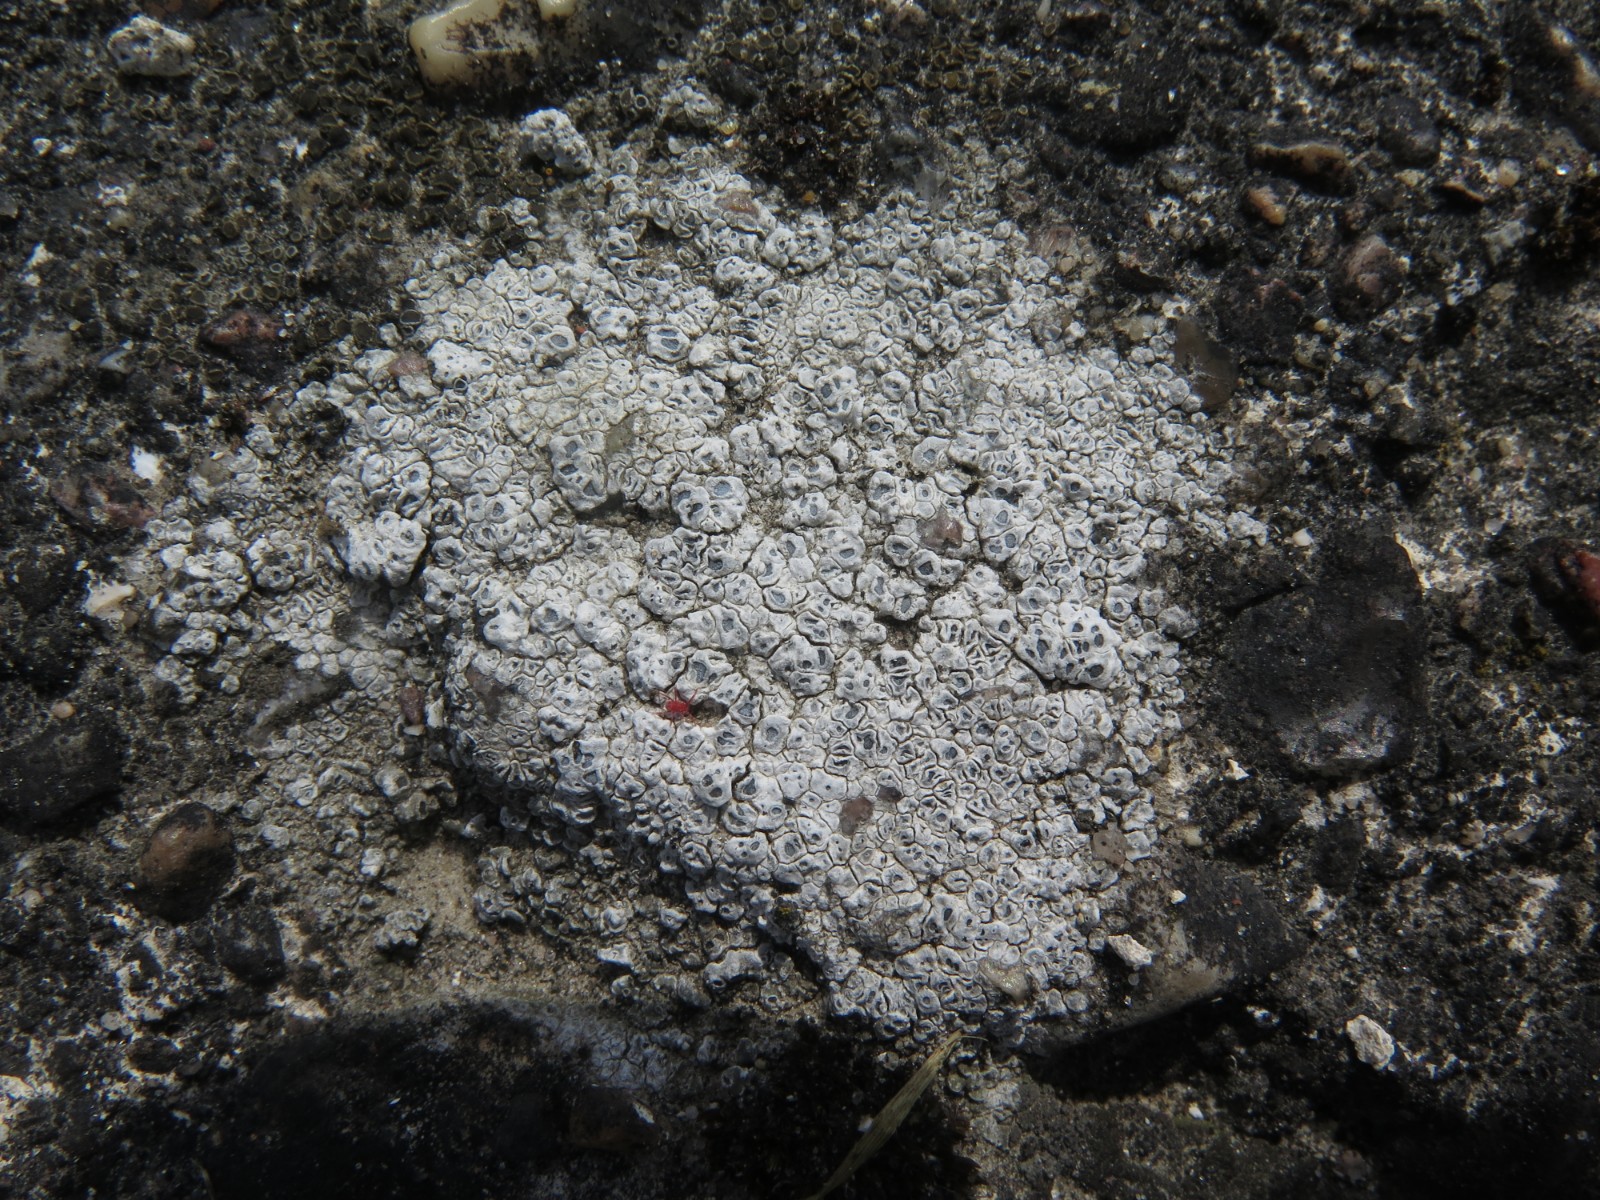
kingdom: Fungi
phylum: Ascomycota
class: Lecanoromycetes
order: Pertusariales
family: Megasporaceae
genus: Circinaria
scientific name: Circinaria contorta
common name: indviklet hulskivelav
